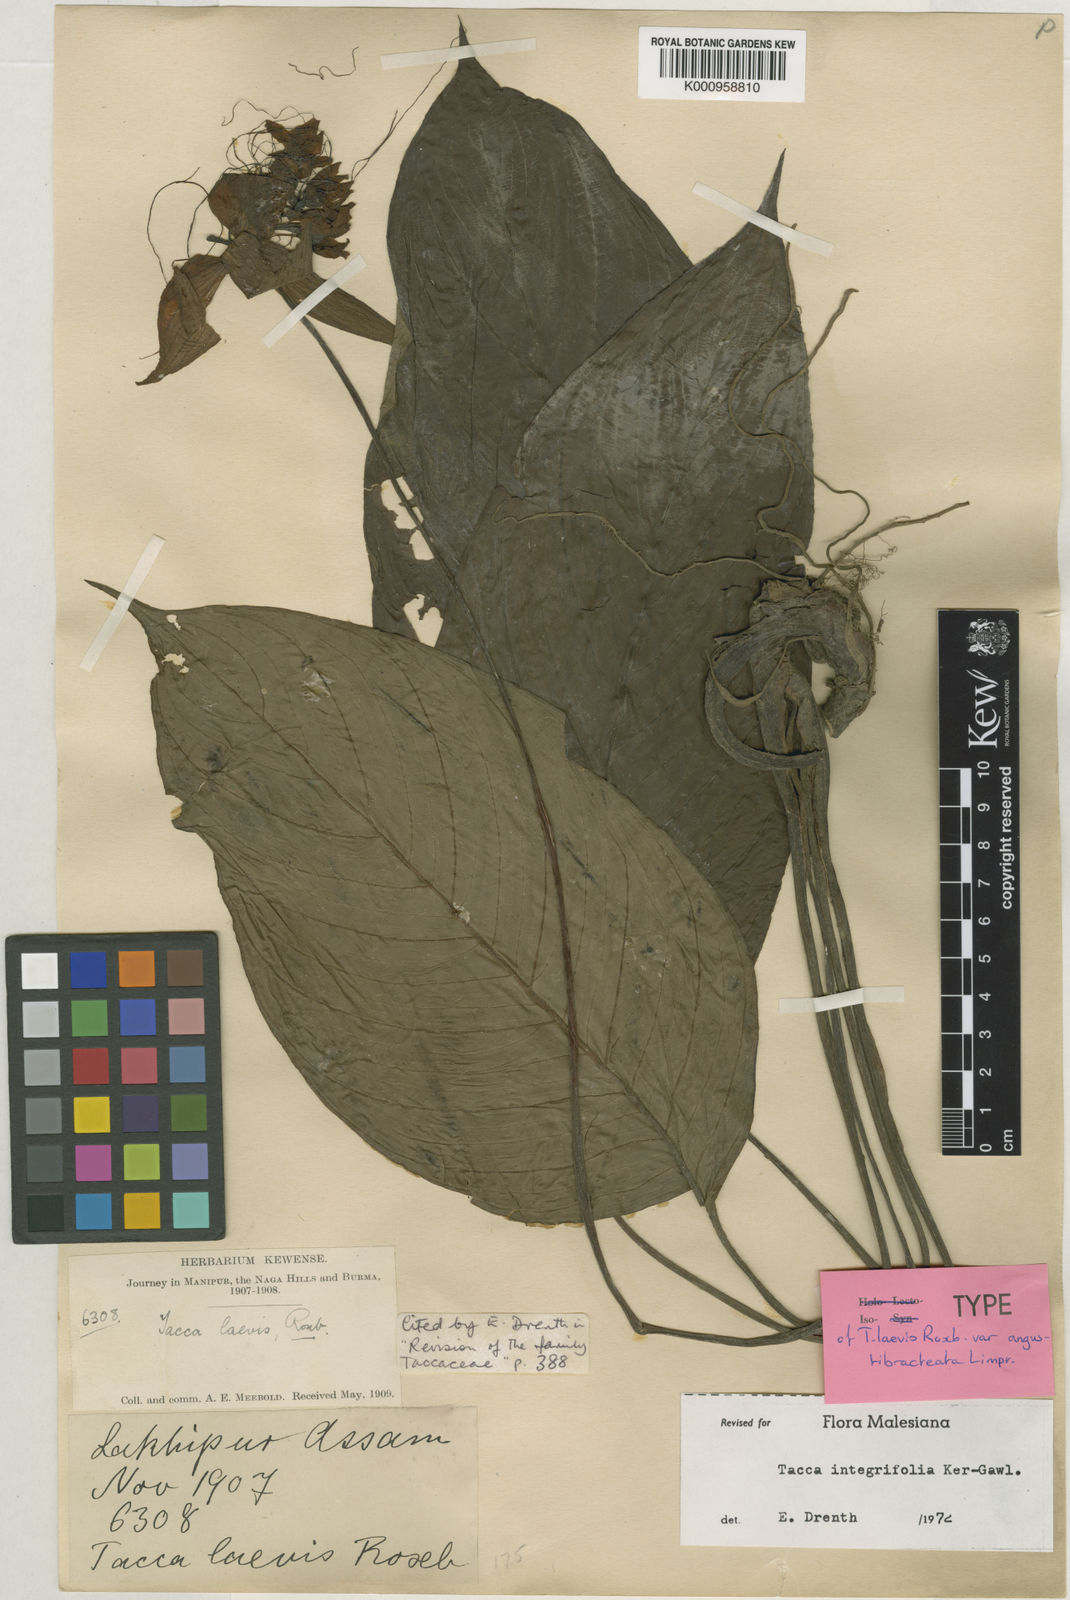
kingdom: Plantae
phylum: Tracheophyta
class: Liliopsida
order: Dioscoreales
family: Dioscoreaceae
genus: Tacca
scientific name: Tacca integrifolia
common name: Batplant
